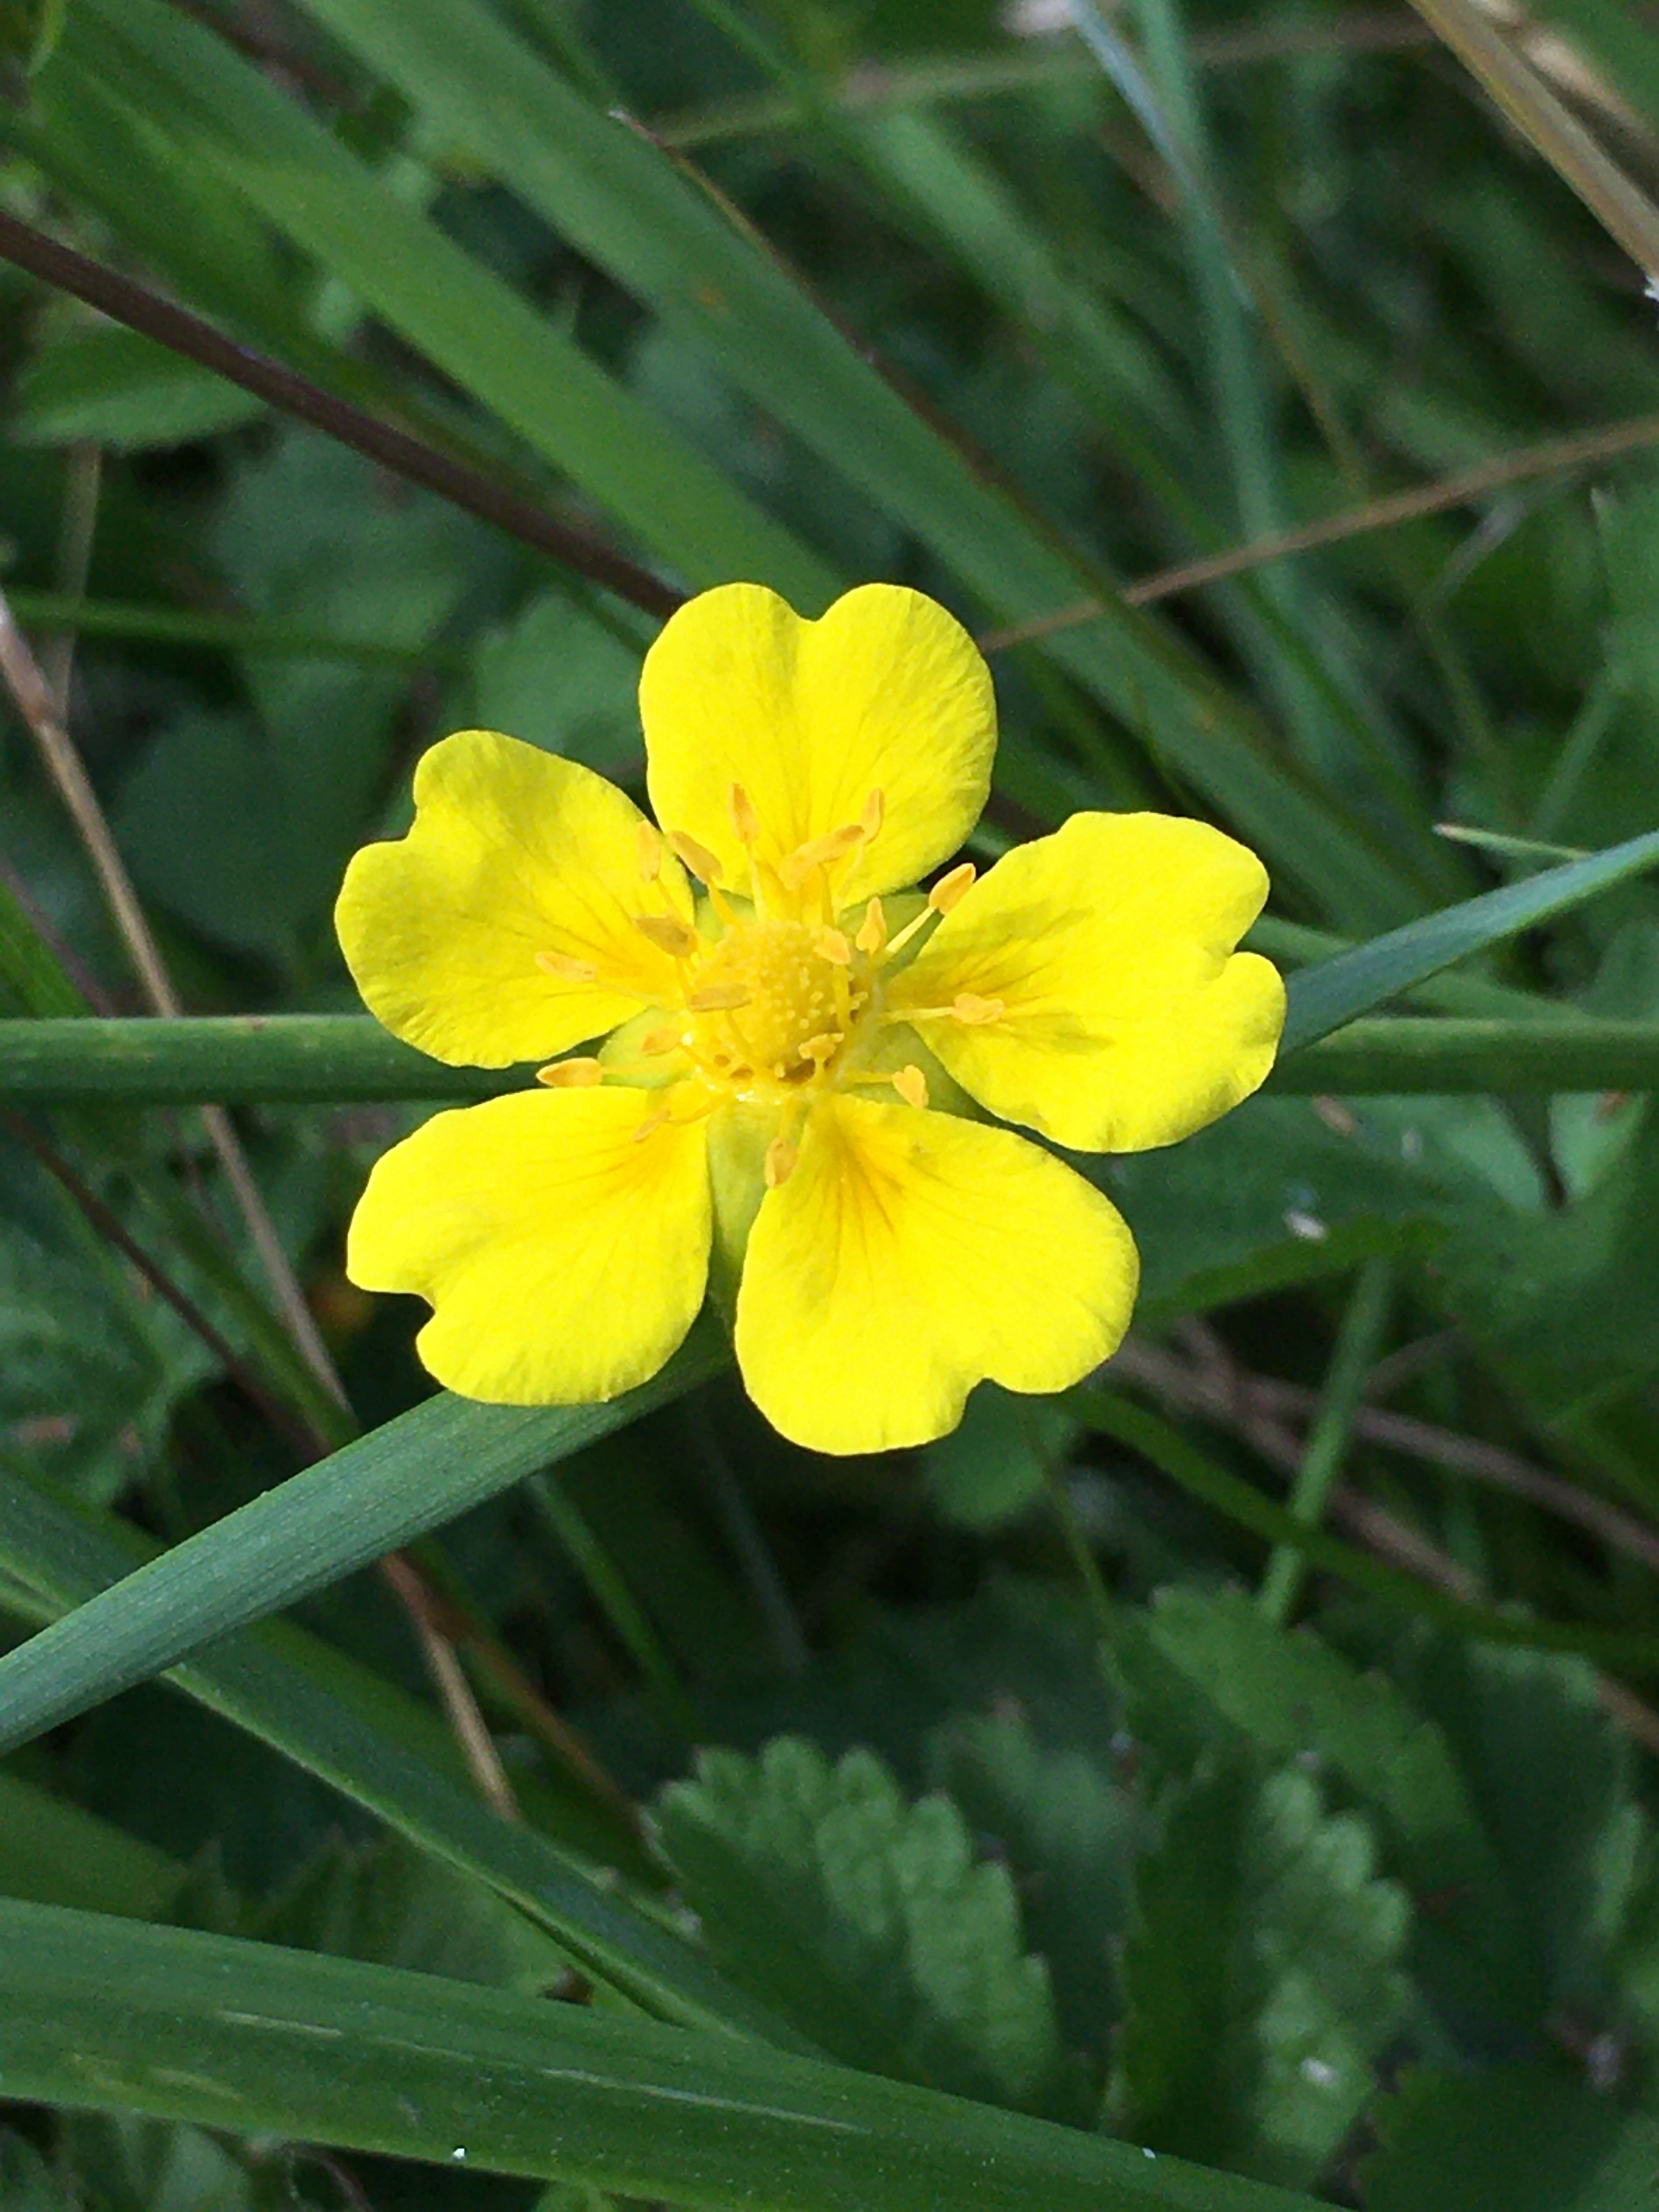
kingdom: Plantae
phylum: Tracheophyta
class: Magnoliopsida
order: Rosales
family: Rosaceae
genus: Potentilla
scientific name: Potentilla reptans
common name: Krybende potentil
